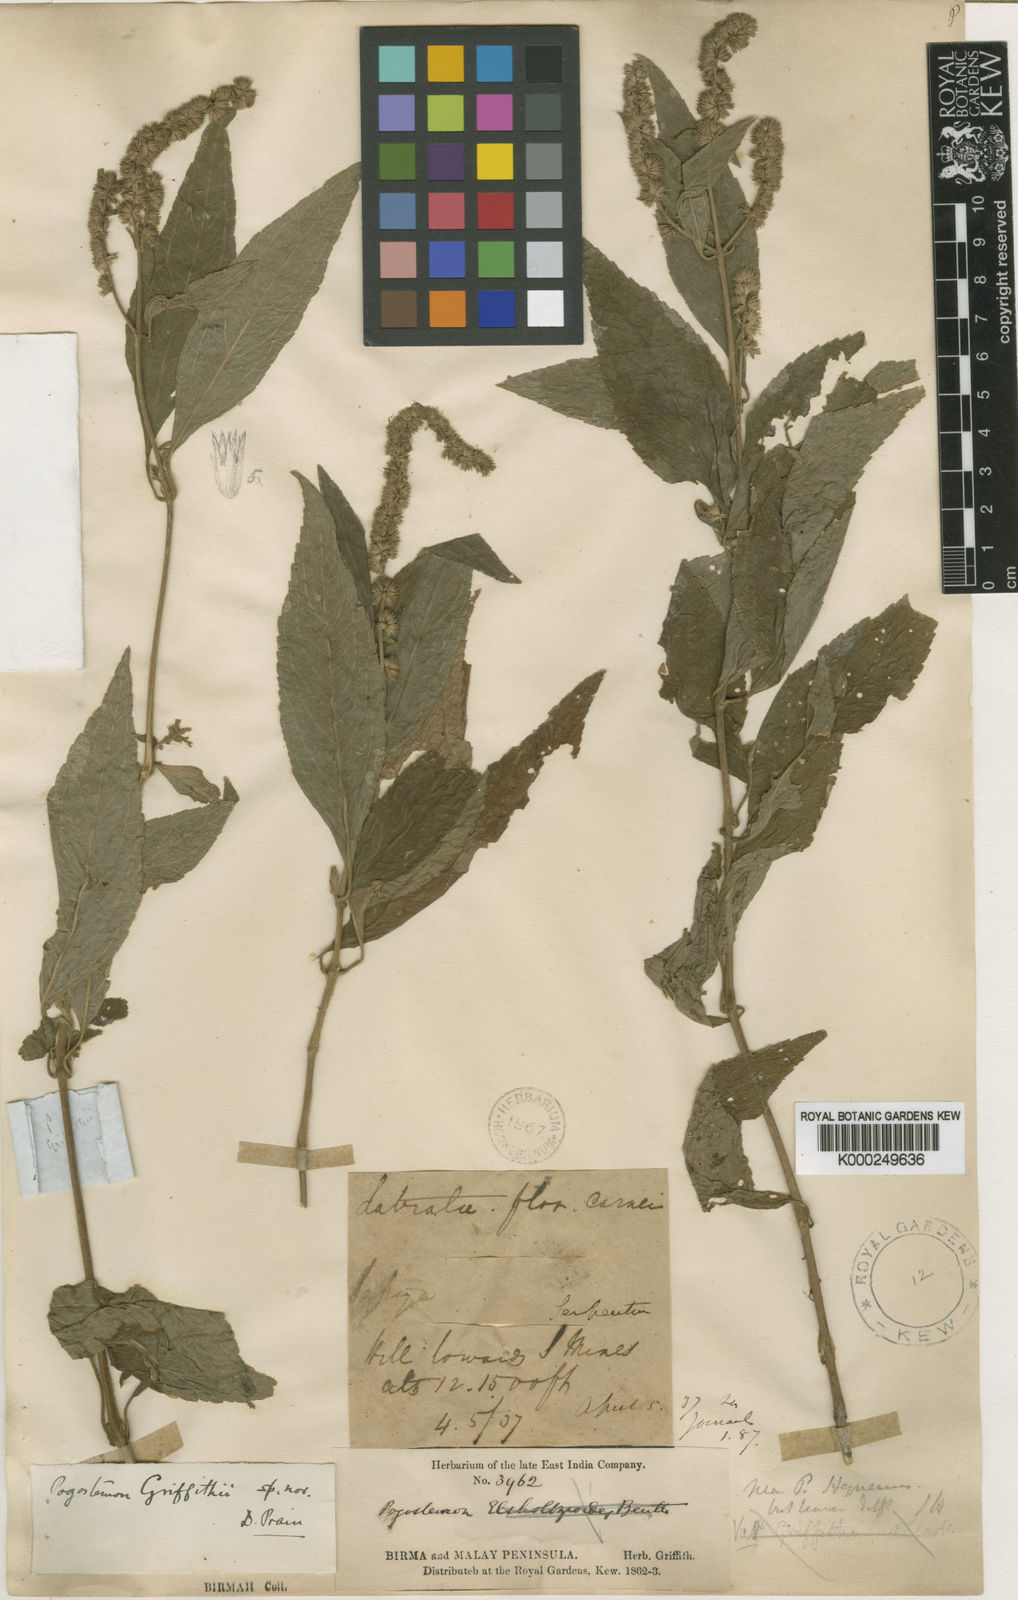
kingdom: Plantae
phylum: Tracheophyta
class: Magnoliopsida
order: Lamiales
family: Lamiaceae
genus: Pogostemon
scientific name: Pogostemon griffithii
